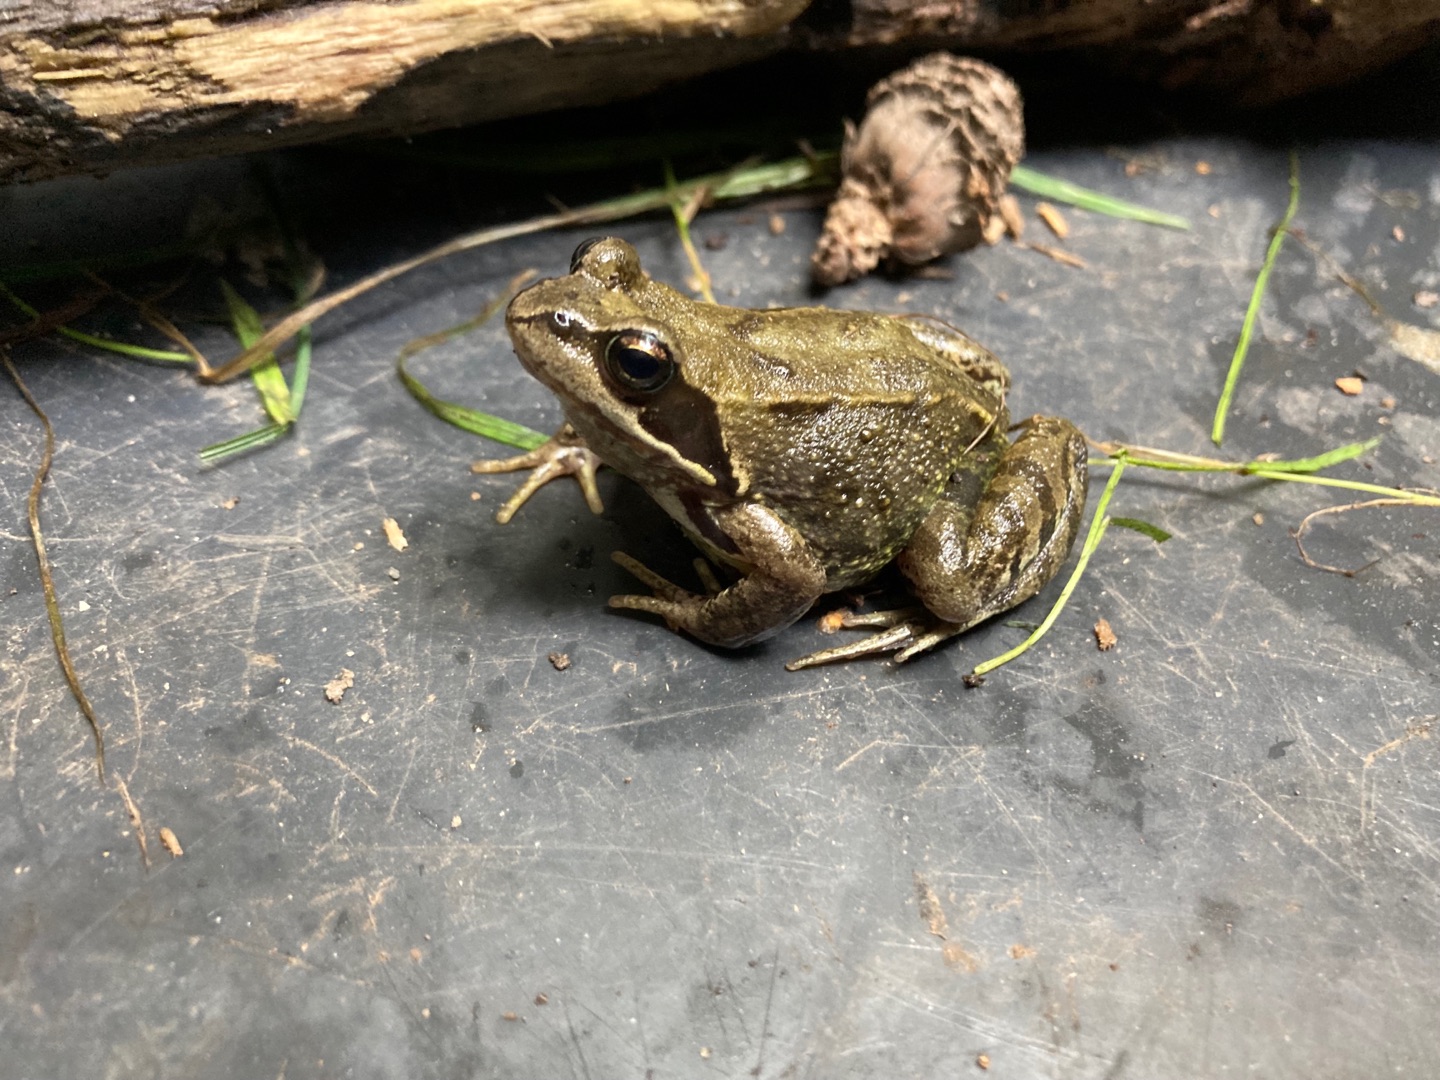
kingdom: Animalia
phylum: Chordata
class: Amphibia
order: Anura
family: Ranidae
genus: Rana
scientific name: Rana temporaria
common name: Butsnudet frø
